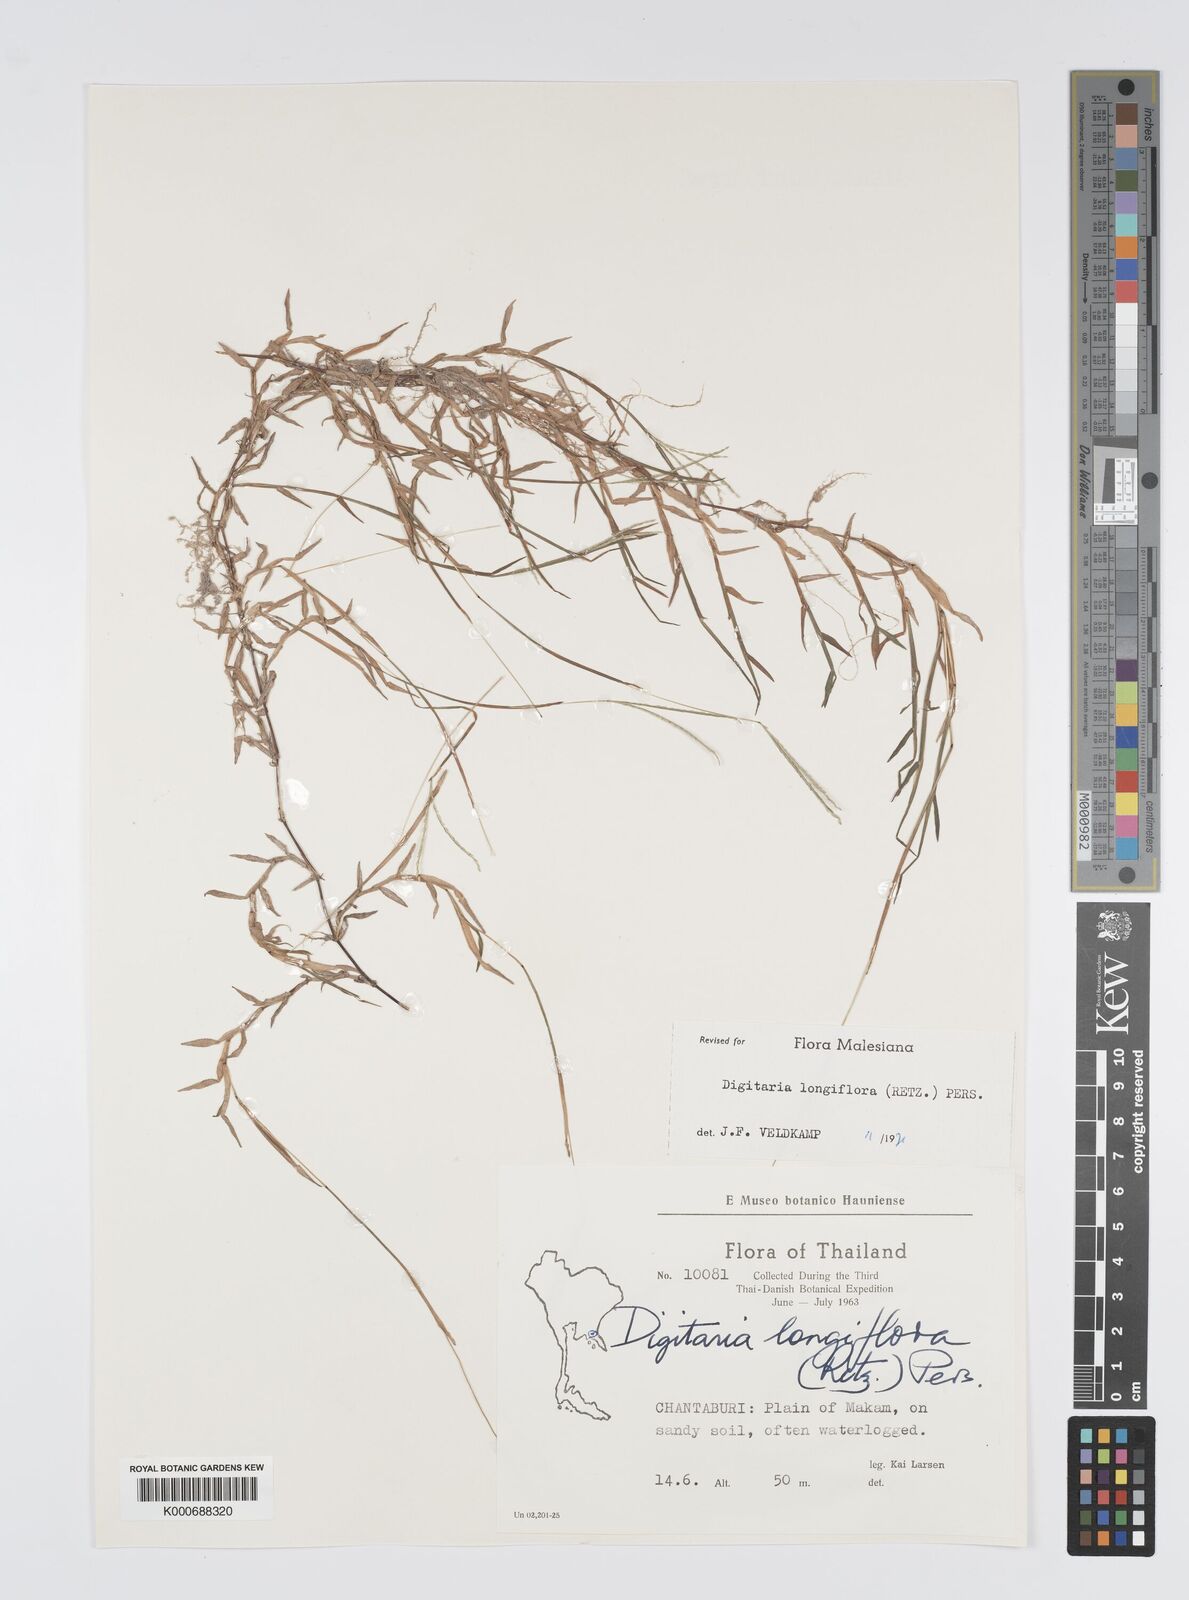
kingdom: Plantae
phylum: Tracheophyta
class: Liliopsida
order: Poales
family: Poaceae
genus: Digitaria
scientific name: Digitaria longiflora
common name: Wire crabgrass
